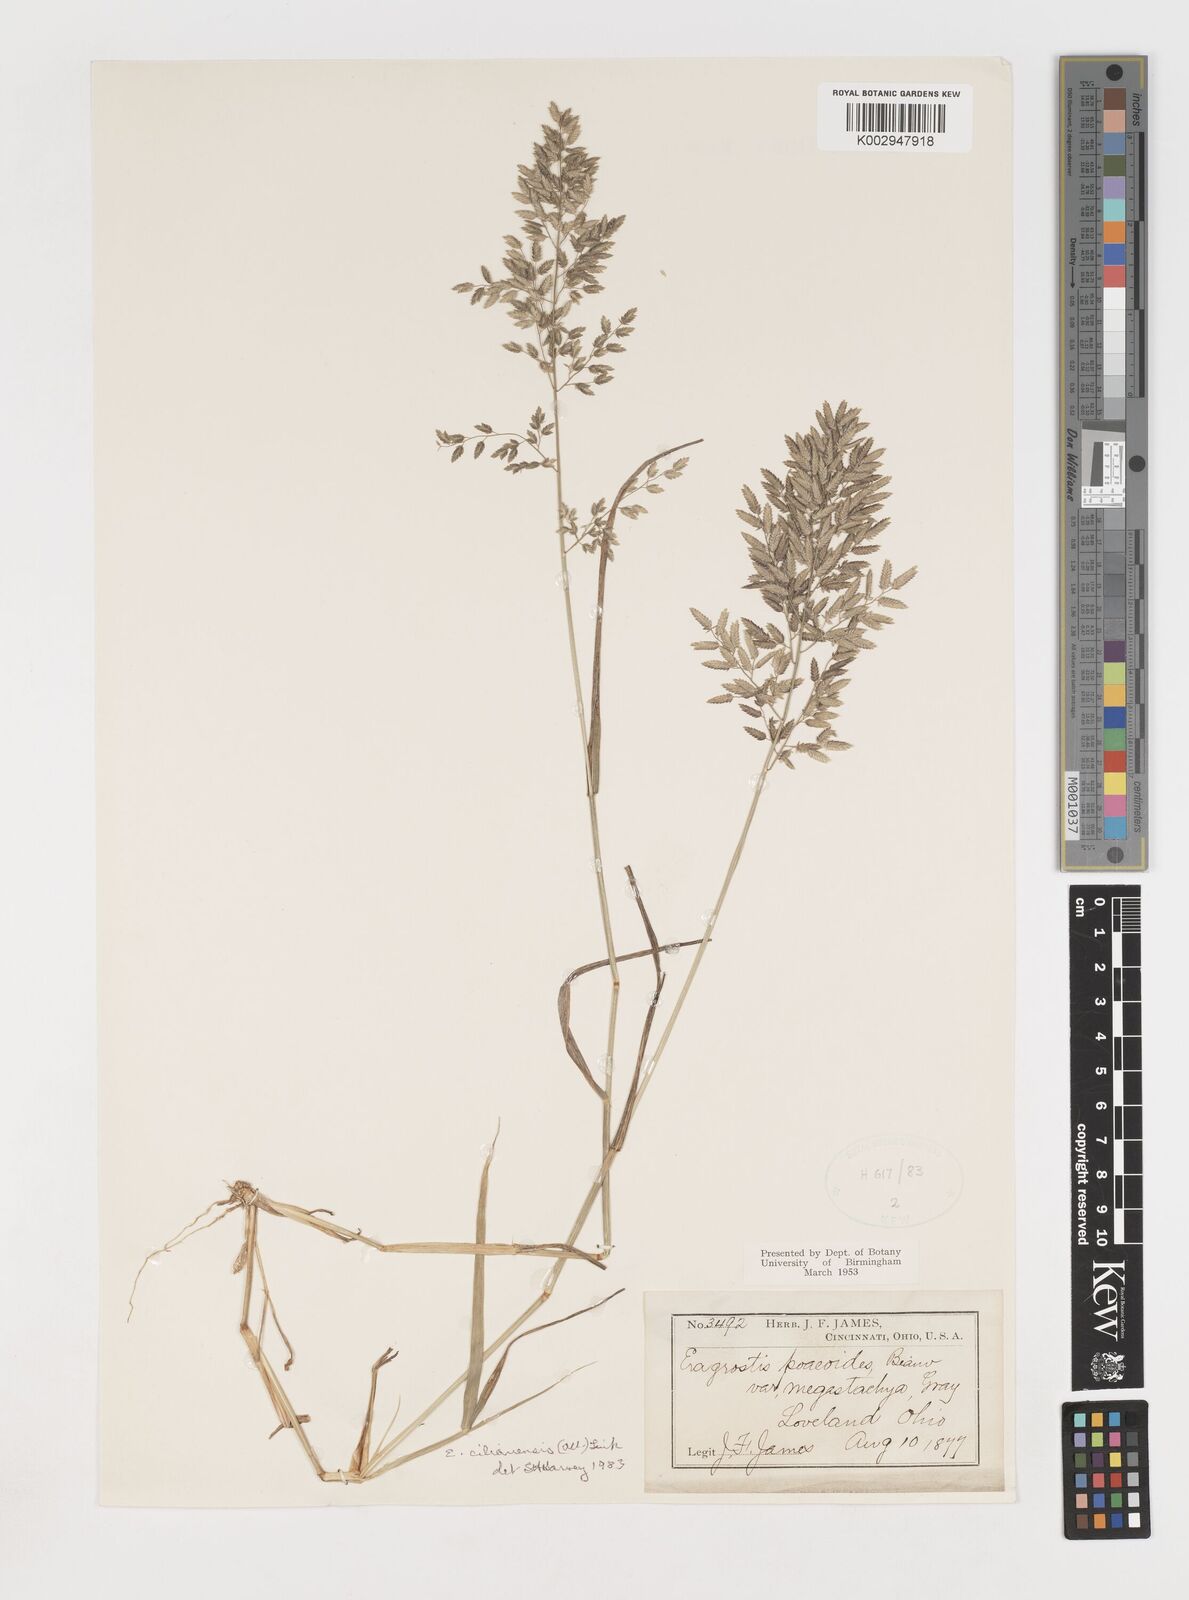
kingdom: Plantae
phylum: Tracheophyta
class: Liliopsida
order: Poales
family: Poaceae
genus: Eragrostis
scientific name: Eragrostis
